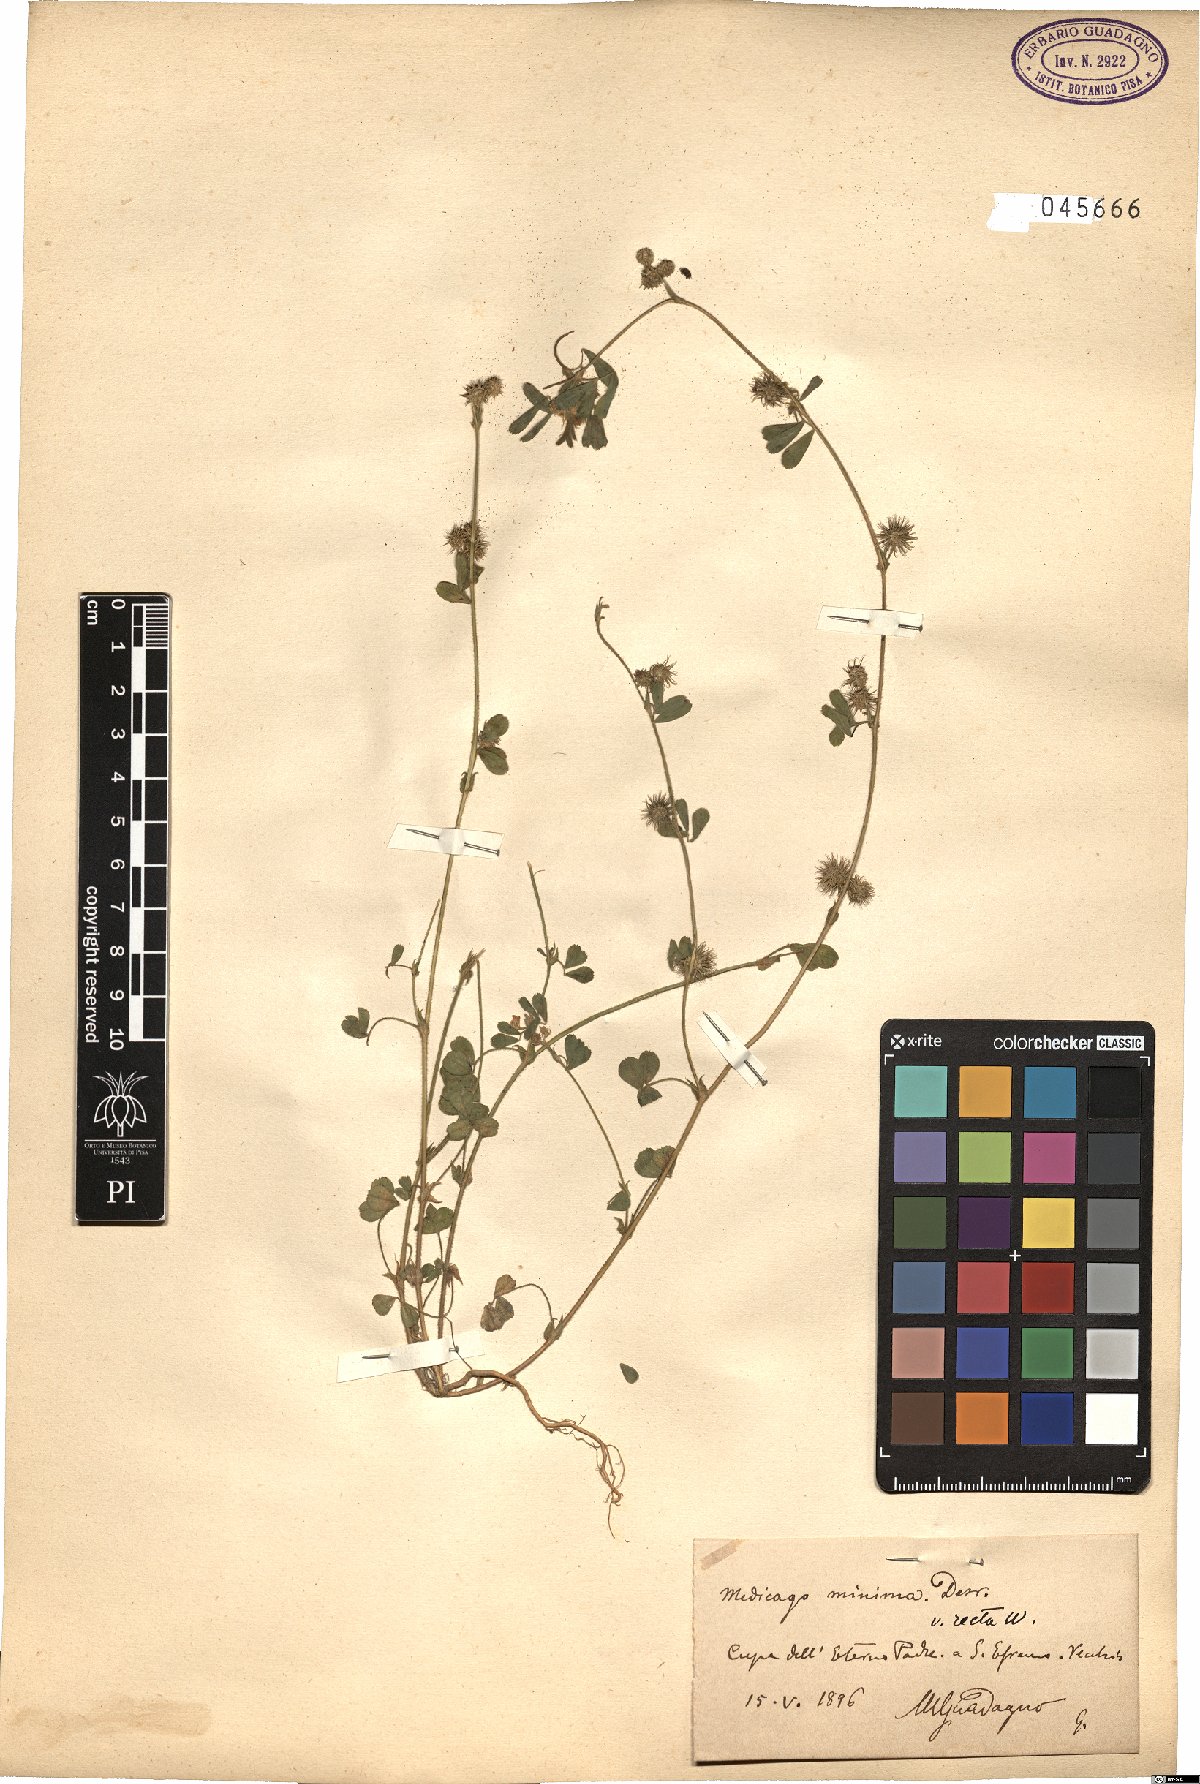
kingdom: Plantae
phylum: Tracheophyta
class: Magnoliopsida
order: Fabales
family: Fabaceae
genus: Medicago
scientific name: Medicago minima
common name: Little bur-clover
